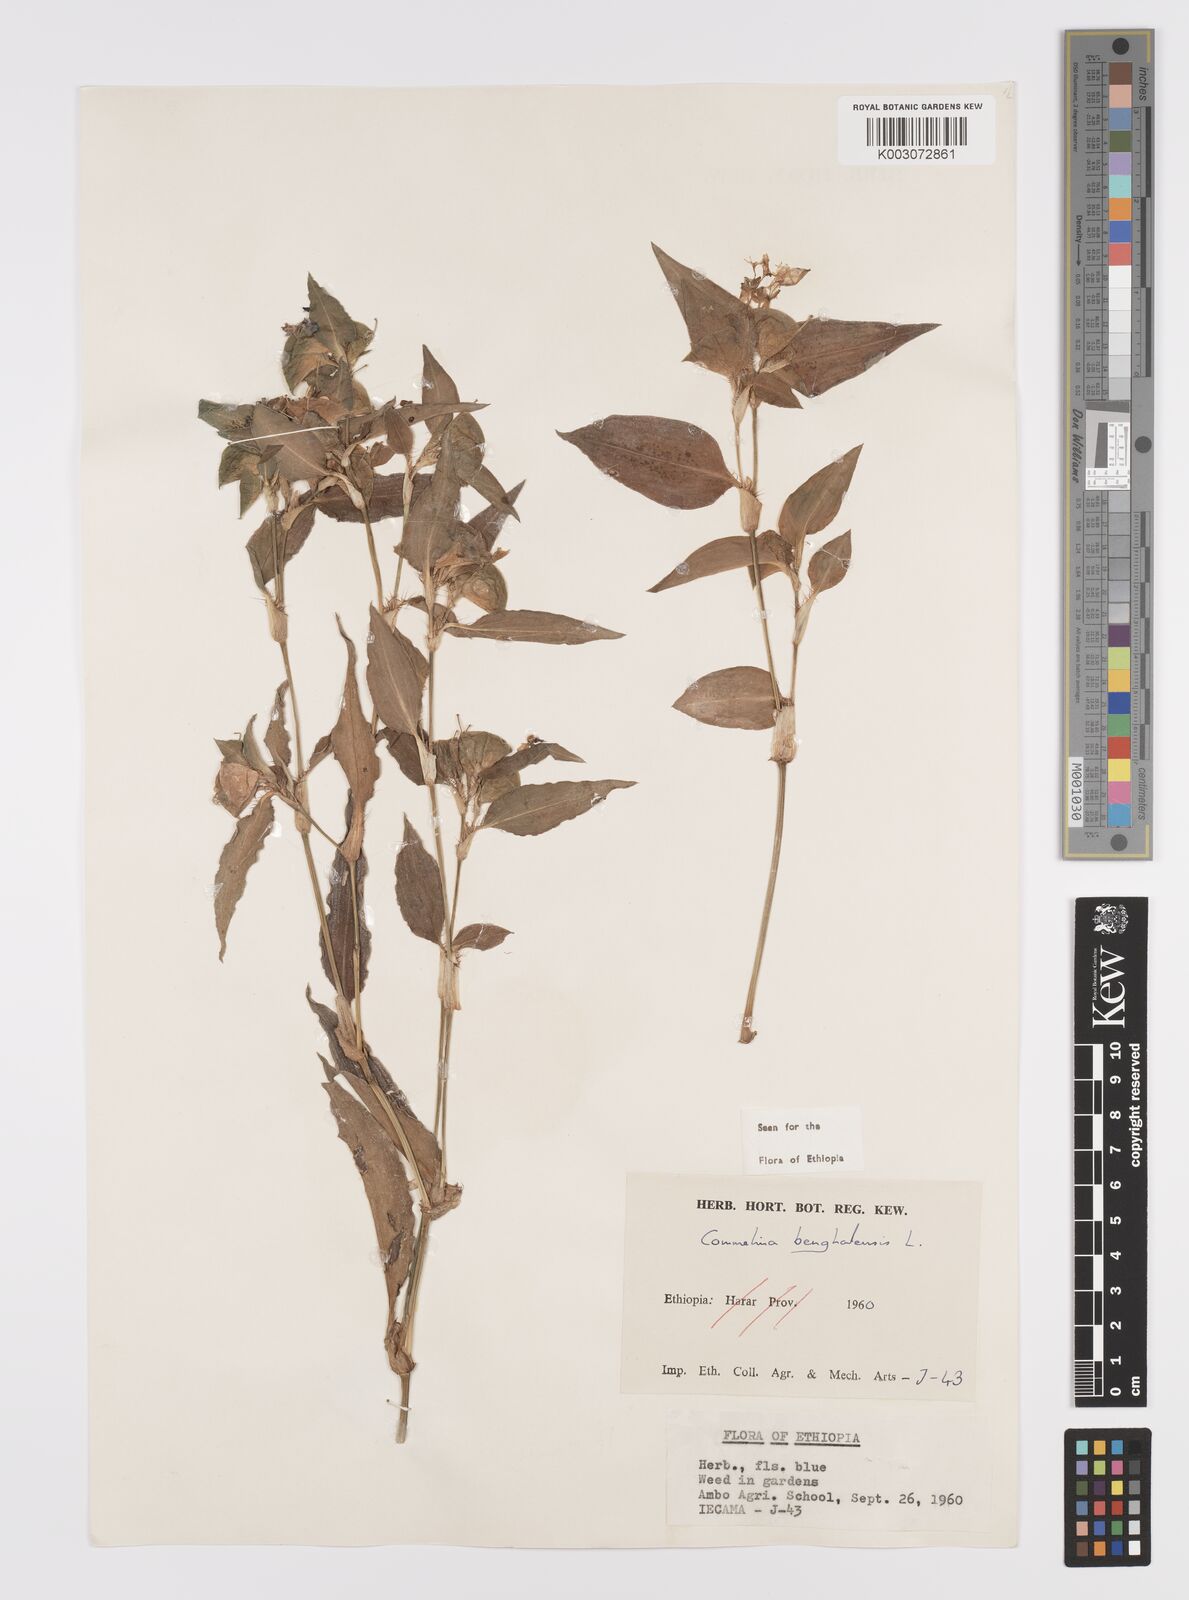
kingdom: Plantae
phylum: Tracheophyta
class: Liliopsida
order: Commelinales
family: Commelinaceae
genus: Commelina
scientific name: Commelina benghalensis
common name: Jio
